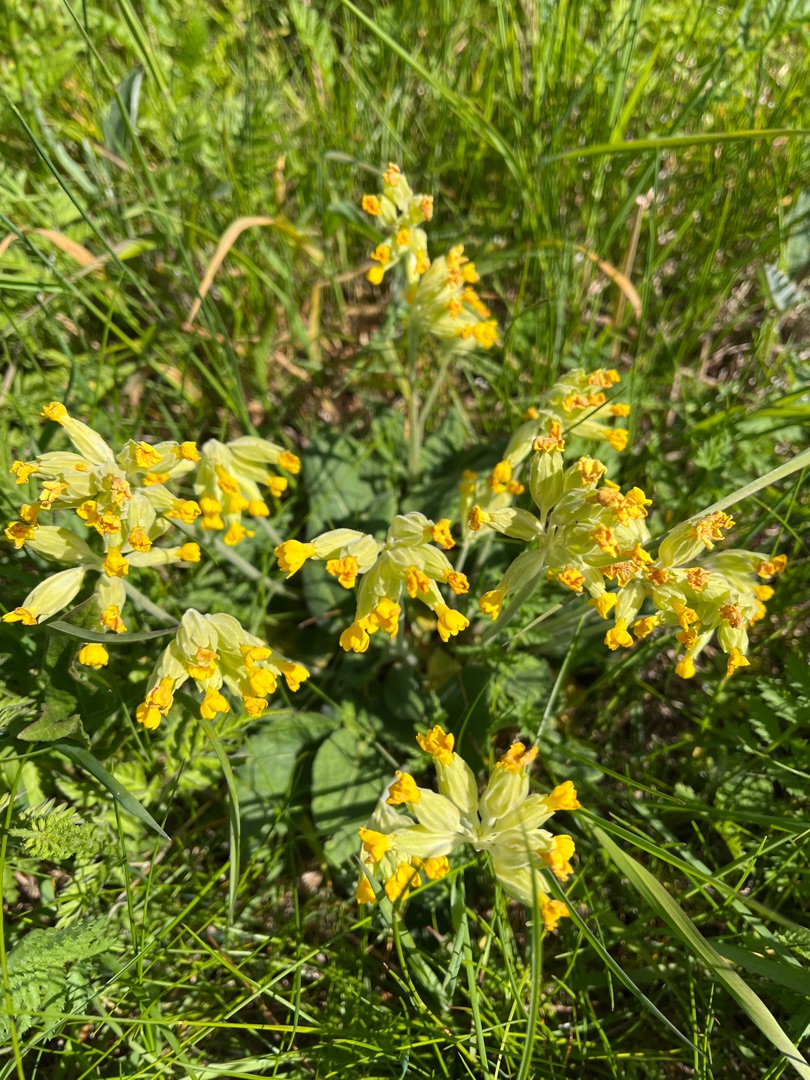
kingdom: Plantae
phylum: Tracheophyta
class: Magnoliopsida
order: Ericales
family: Primulaceae
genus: Primula
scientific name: Primula veris
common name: Hulkravet kodriver
